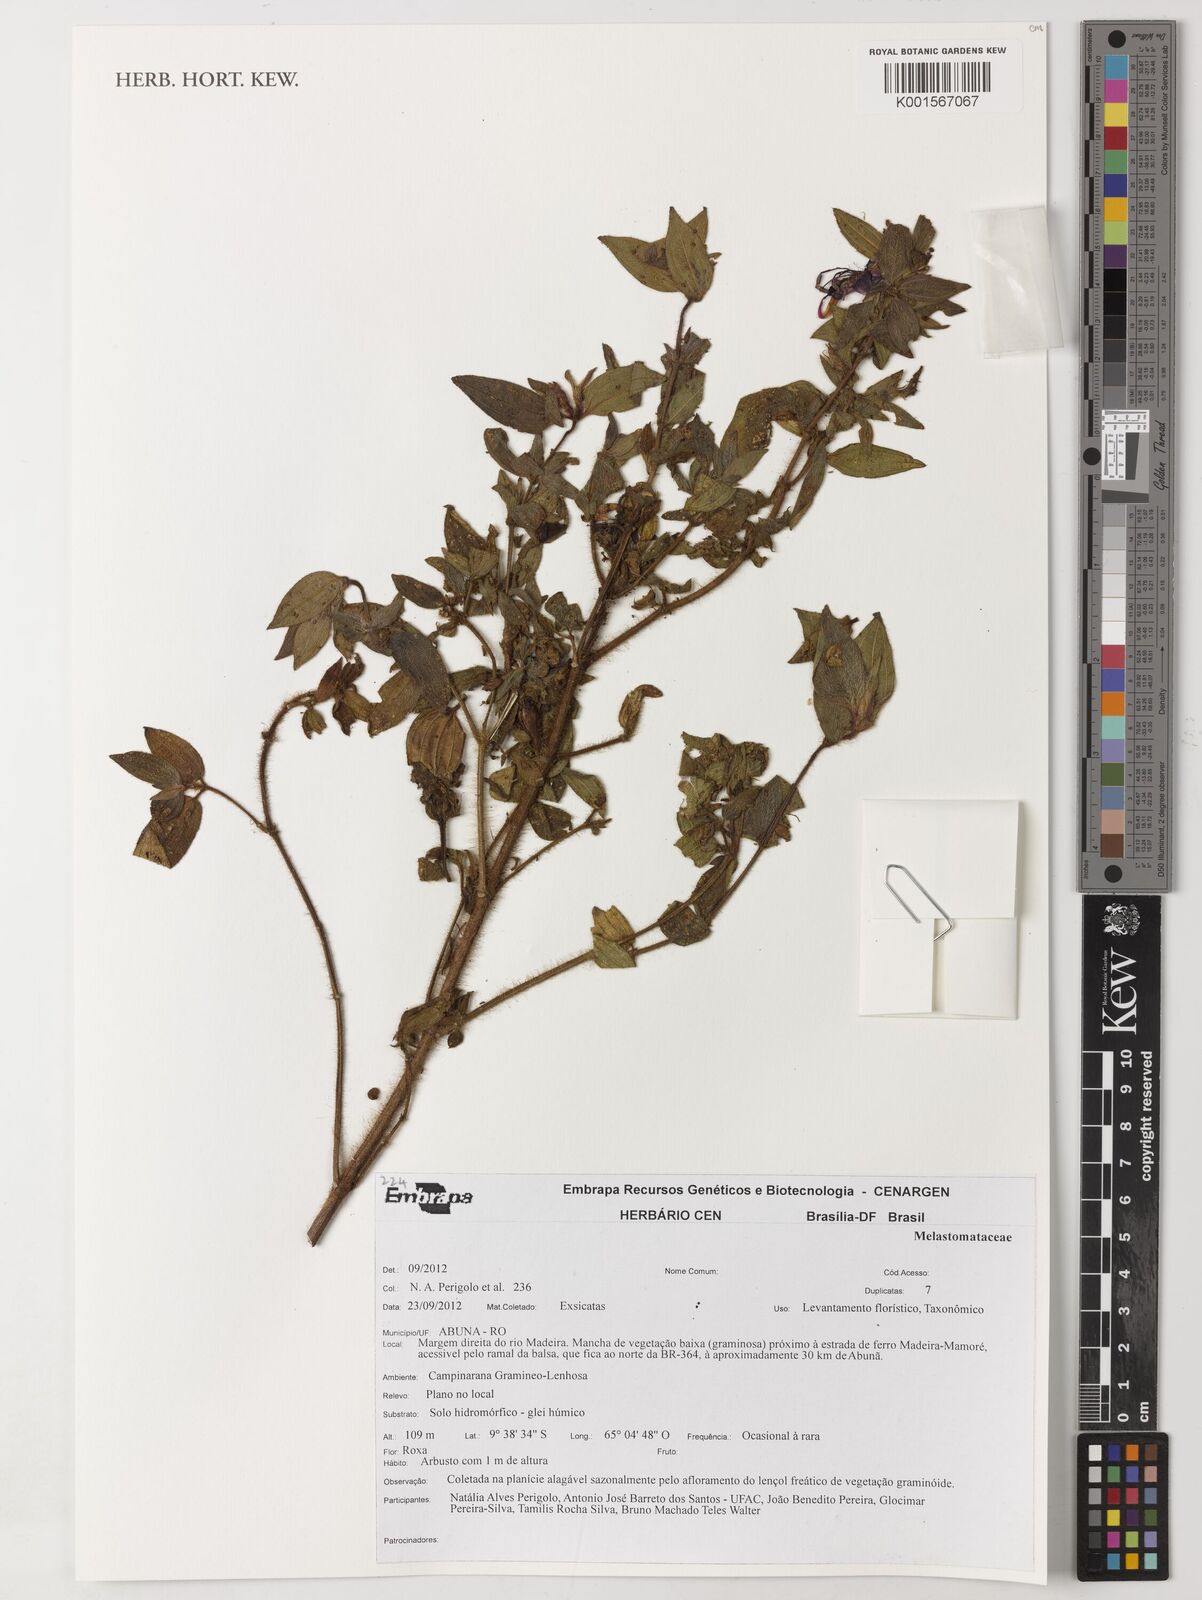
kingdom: Plantae
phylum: Tracheophyta
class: Magnoliopsida
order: Myrtales
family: Melastomataceae
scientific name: Melastomataceae
